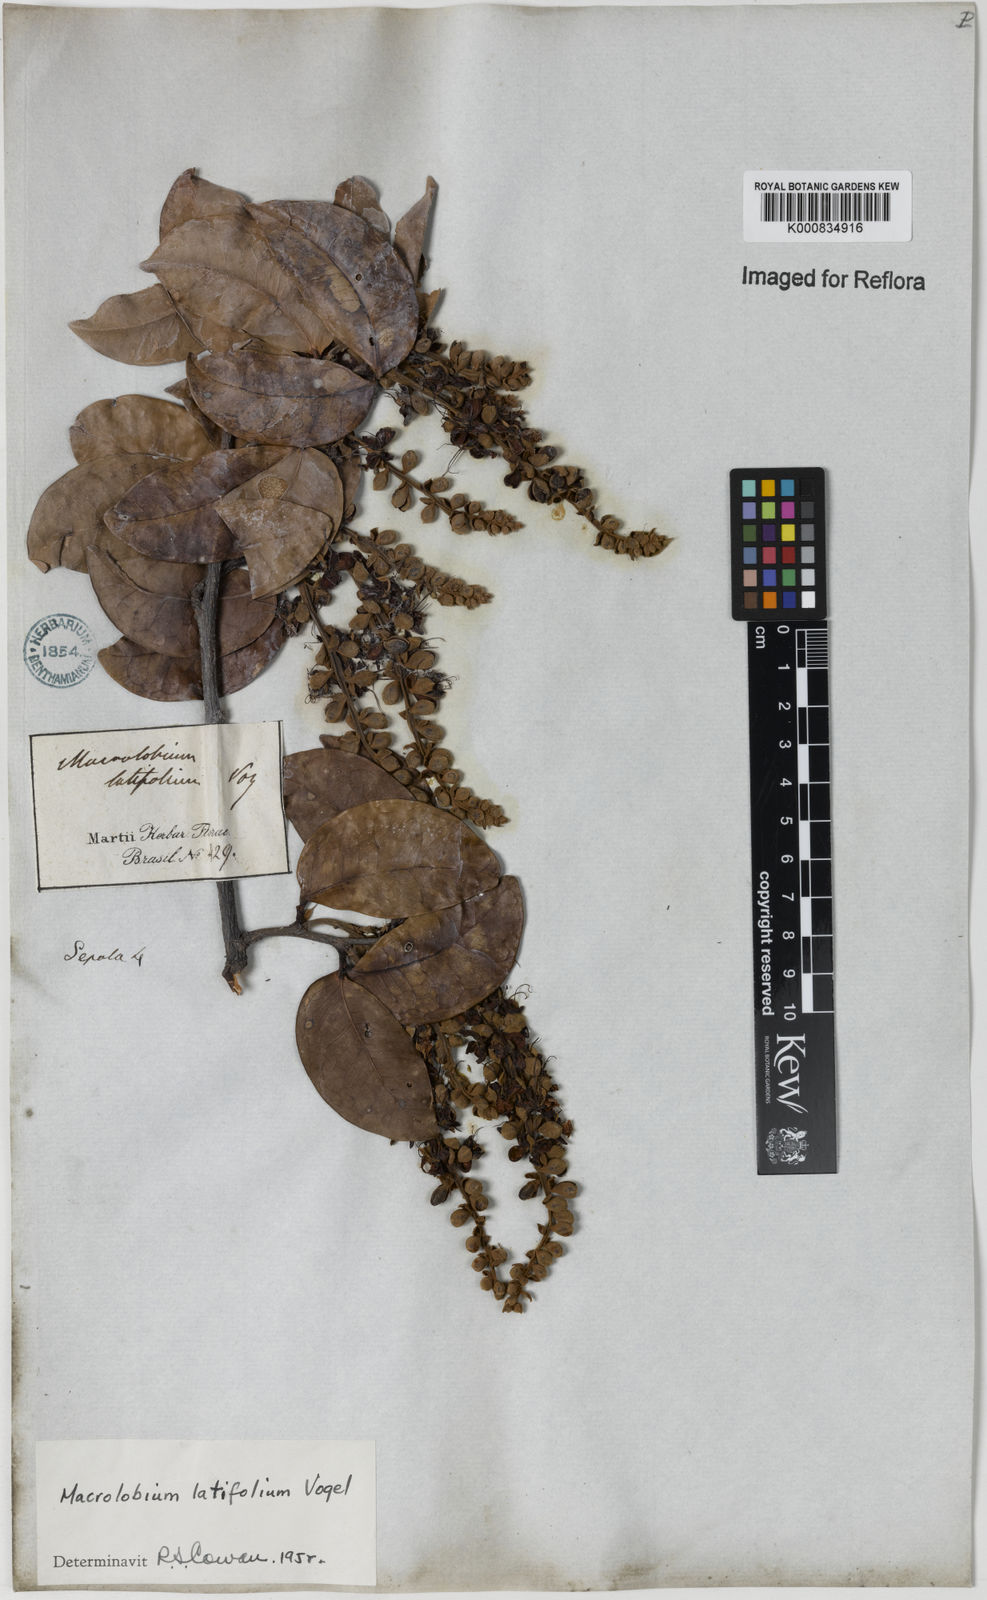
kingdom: Plantae
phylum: Tracheophyta
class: Magnoliopsida
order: Fabales
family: Fabaceae
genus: Macrolobium
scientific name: Macrolobium latifolium
